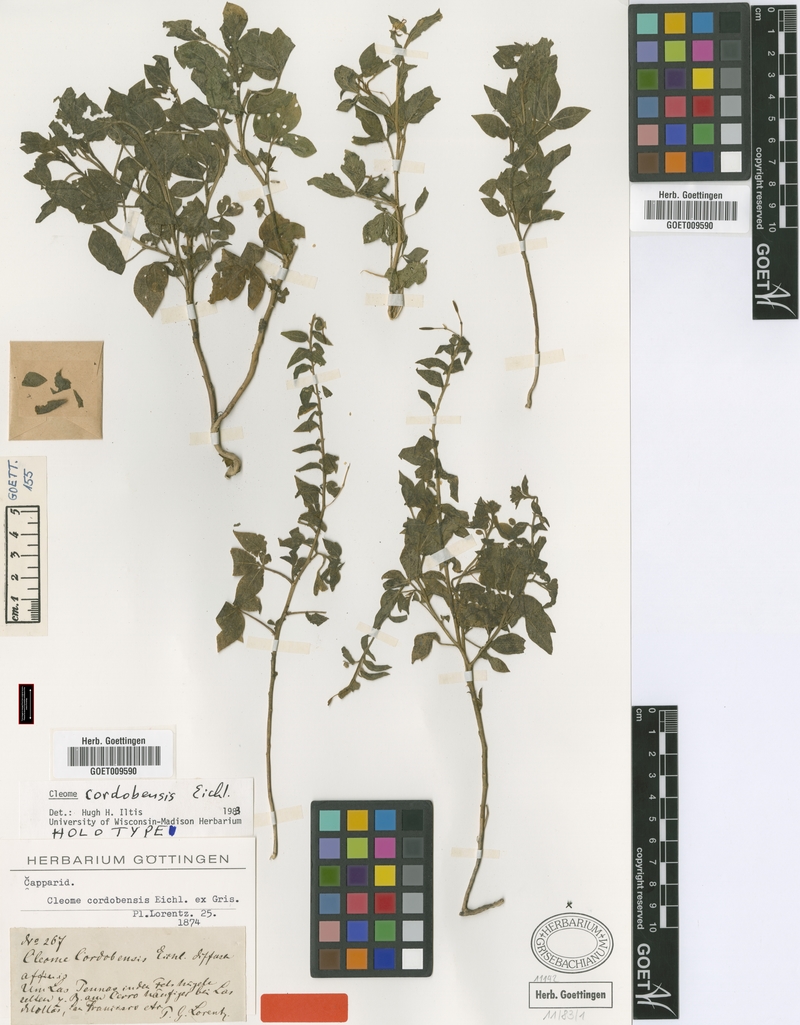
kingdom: Plantae
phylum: Tracheophyta
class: Magnoliopsida
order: Brassicales
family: Cleomaceae
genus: Tarenaya
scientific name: Tarenaya cordobensis
